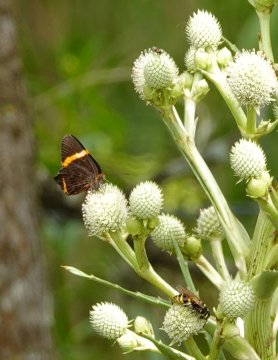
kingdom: Animalia
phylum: Arthropoda
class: Insecta
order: Lepidoptera
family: Riodinidae
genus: Notheme
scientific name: Notheme eumeus
